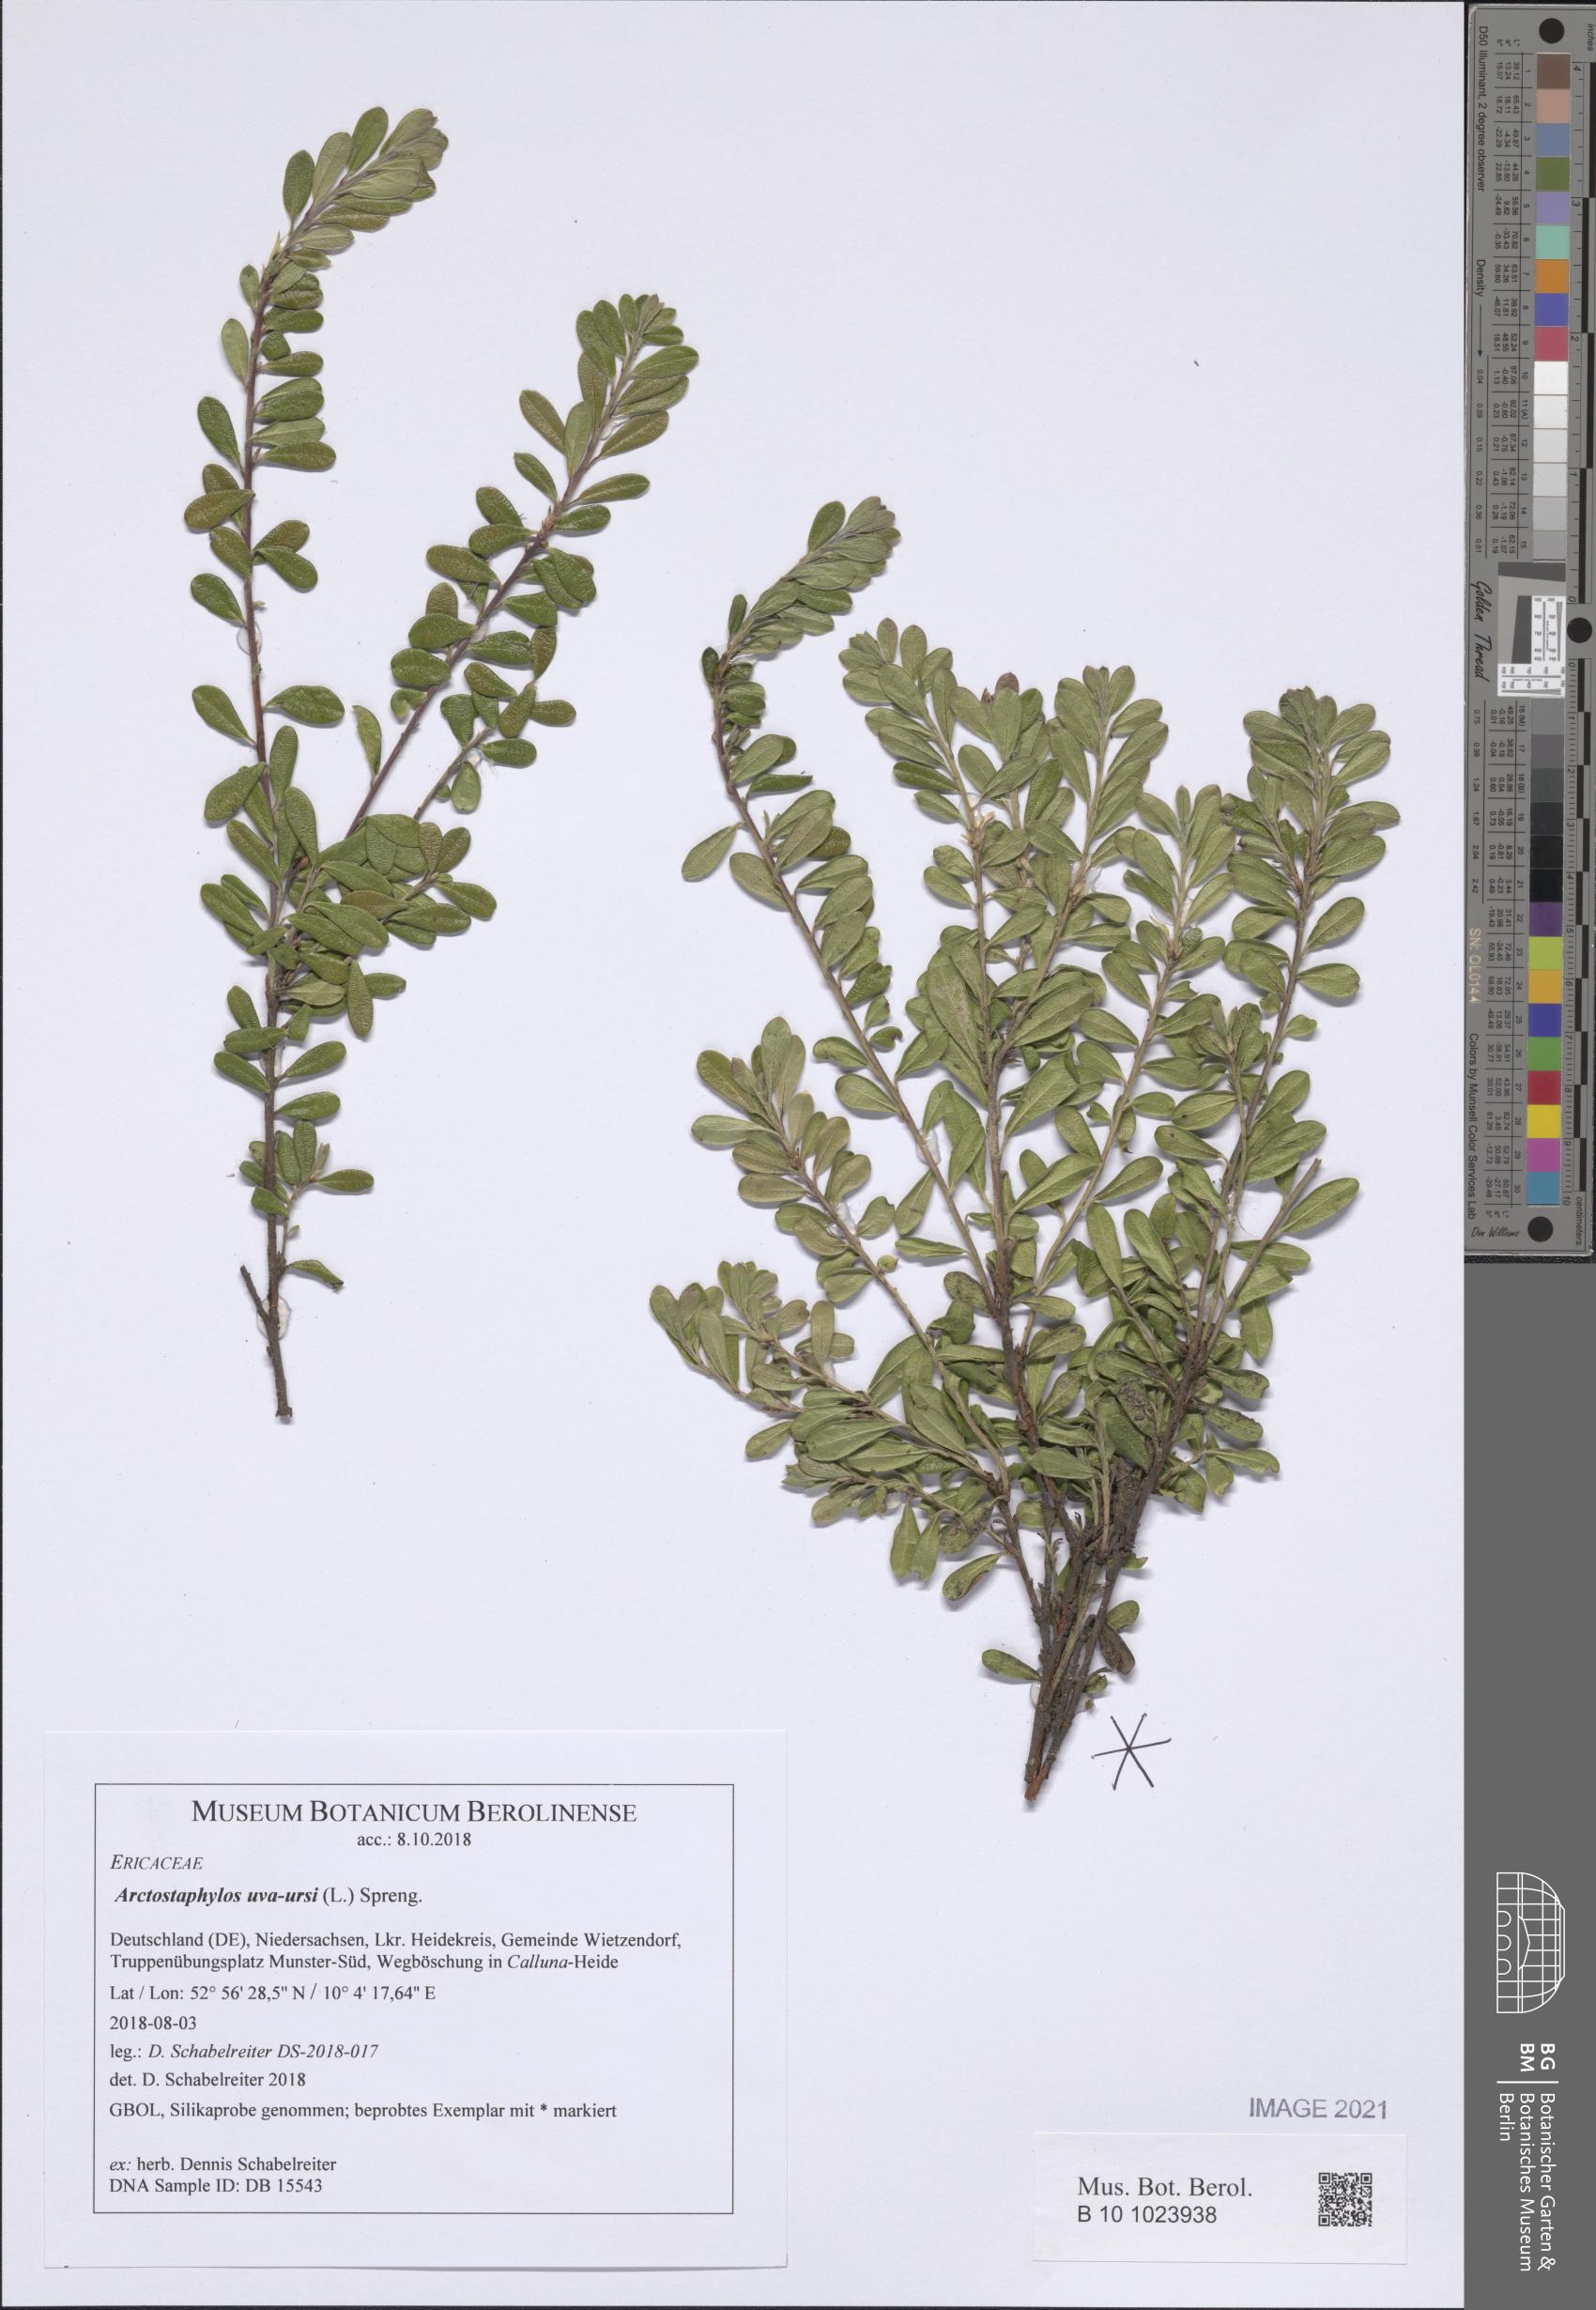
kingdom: Plantae
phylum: Tracheophyta
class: Magnoliopsida
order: Ericales
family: Ericaceae
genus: Arctostaphylos
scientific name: Arctostaphylos uva-ursi
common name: Bearberry
